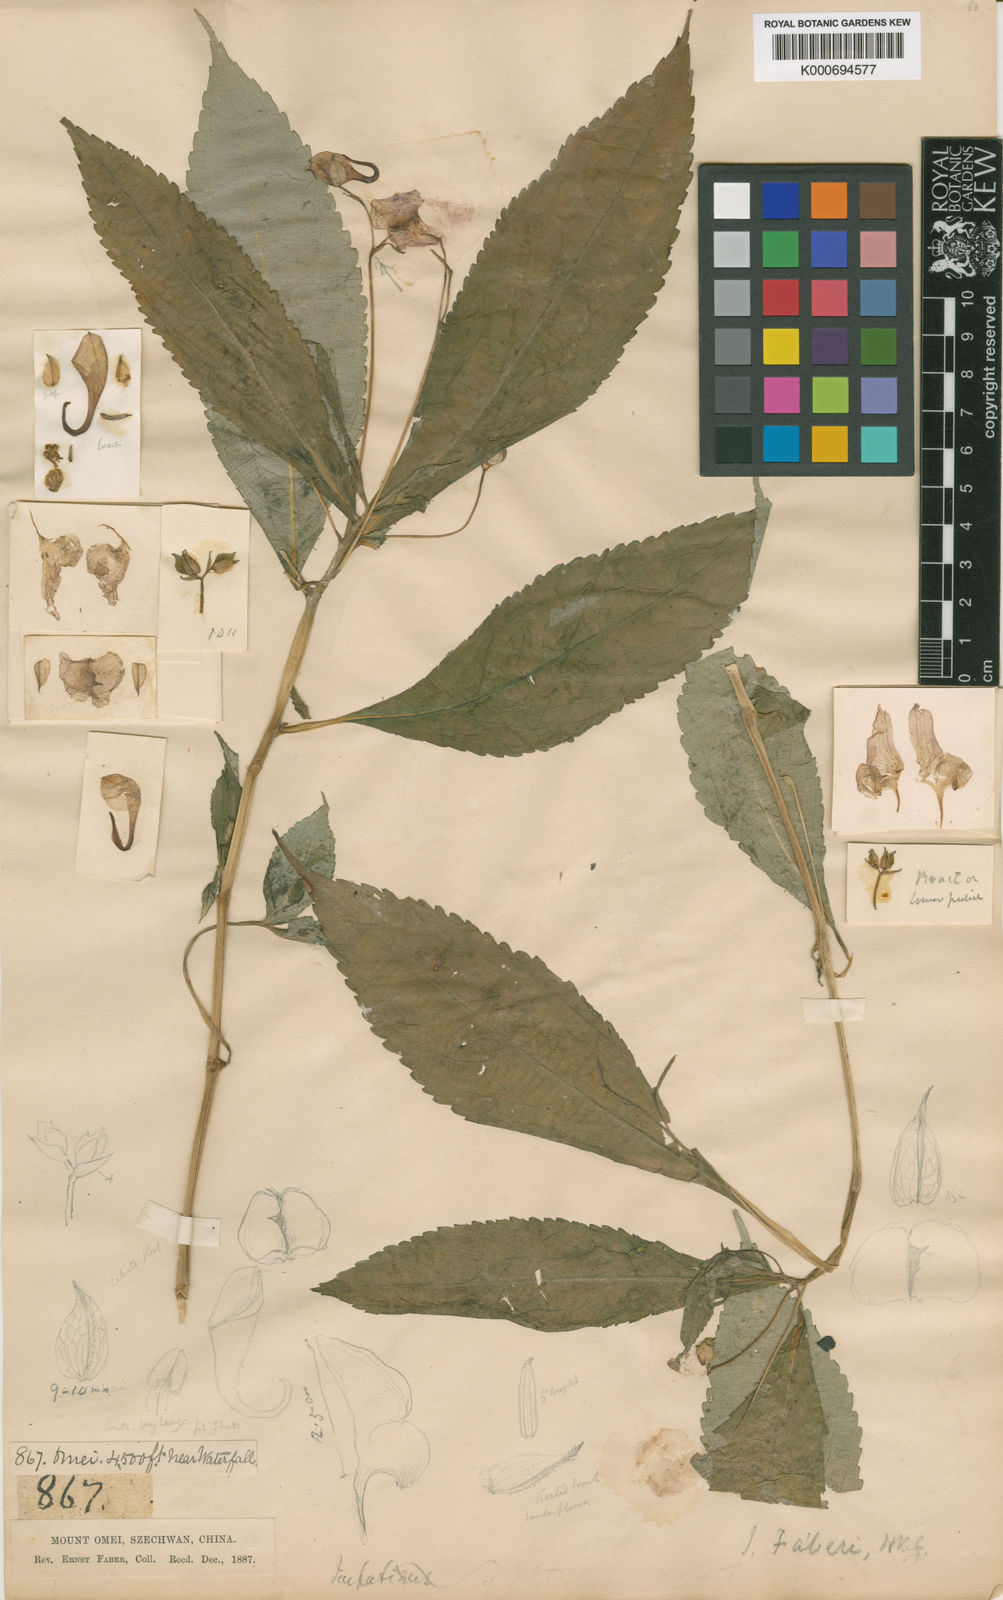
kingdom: Plantae
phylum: Tracheophyta
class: Magnoliopsida
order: Ericales
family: Balsaminaceae
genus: Impatiens
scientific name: Impatiens faberi
